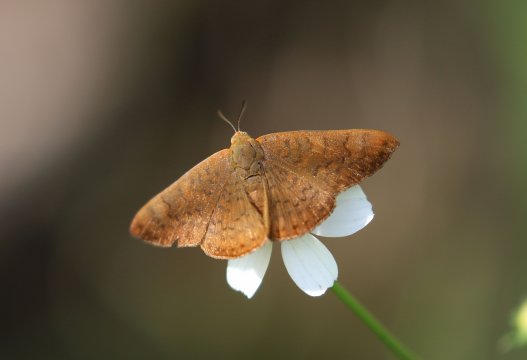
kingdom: Animalia
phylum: Arthropoda
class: Insecta
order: Lepidoptera
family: Lycaenidae
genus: Emesis
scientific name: Emesis mandana
